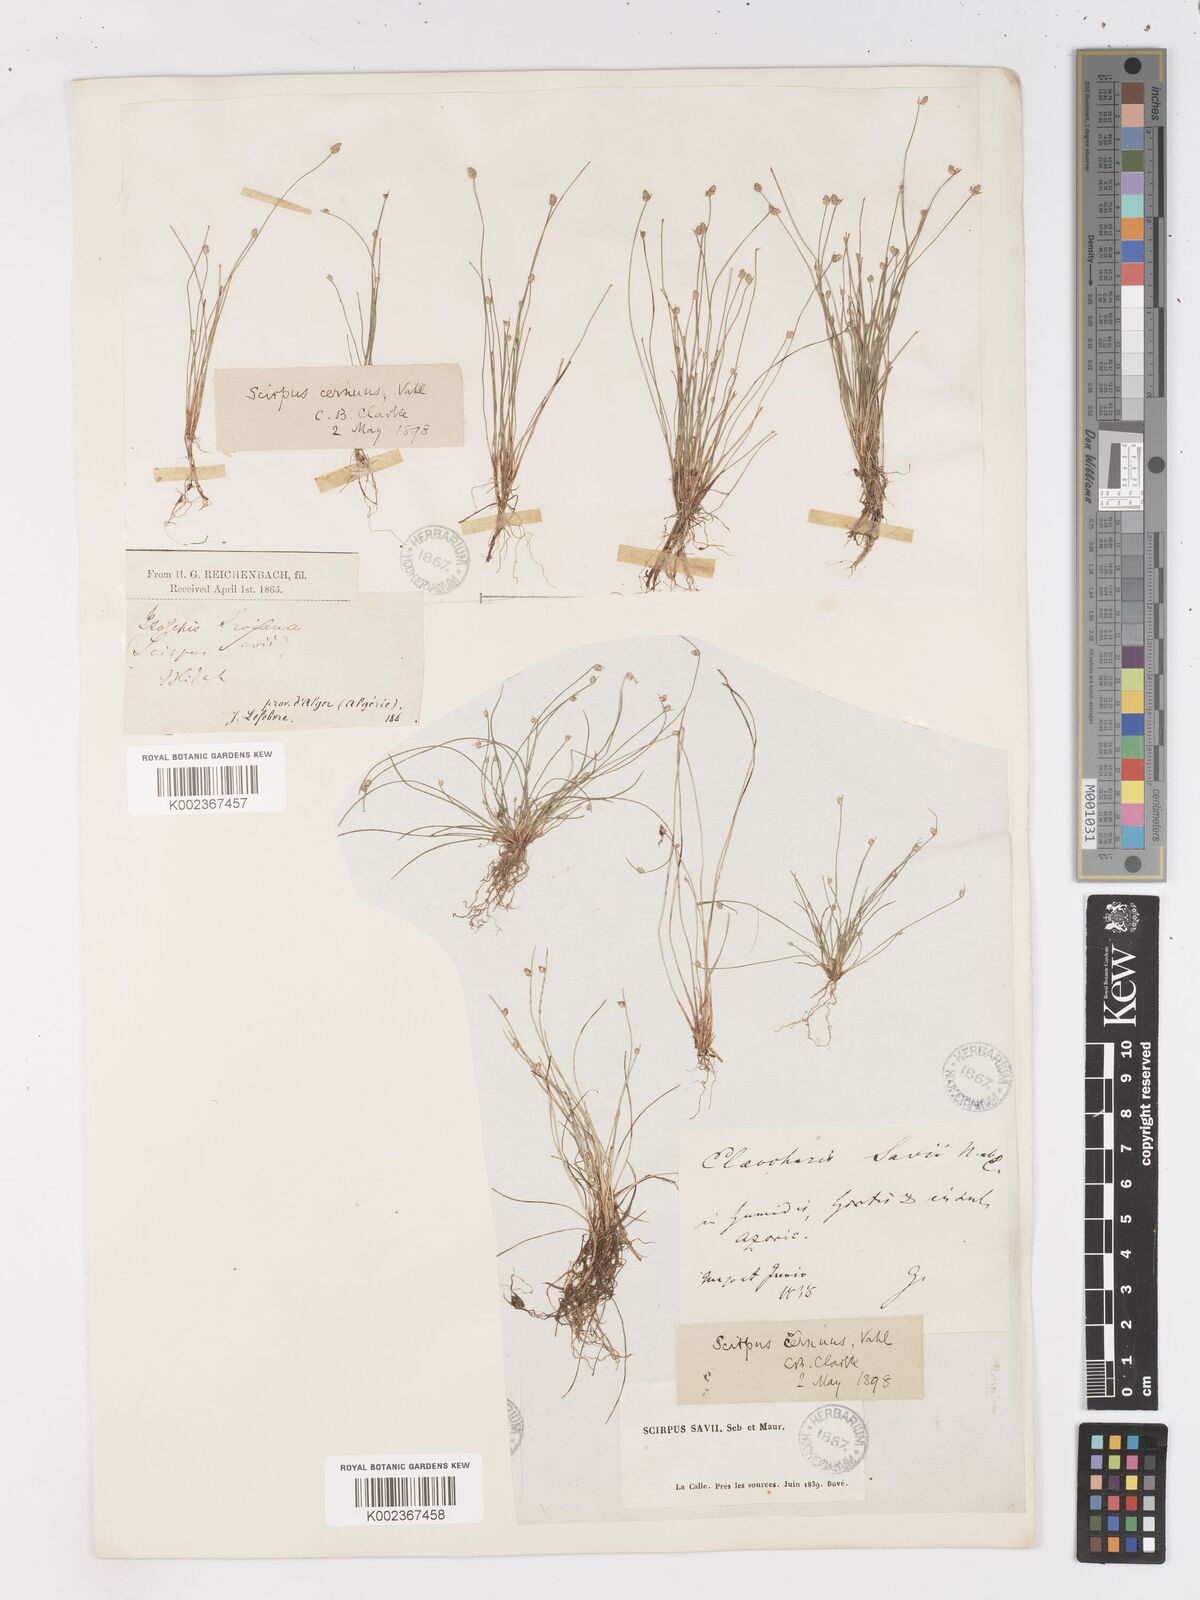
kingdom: Plantae
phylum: Tracheophyta
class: Liliopsida
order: Poales
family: Cyperaceae
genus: Isolepis
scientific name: Isolepis cernua
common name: Slender club-rush
